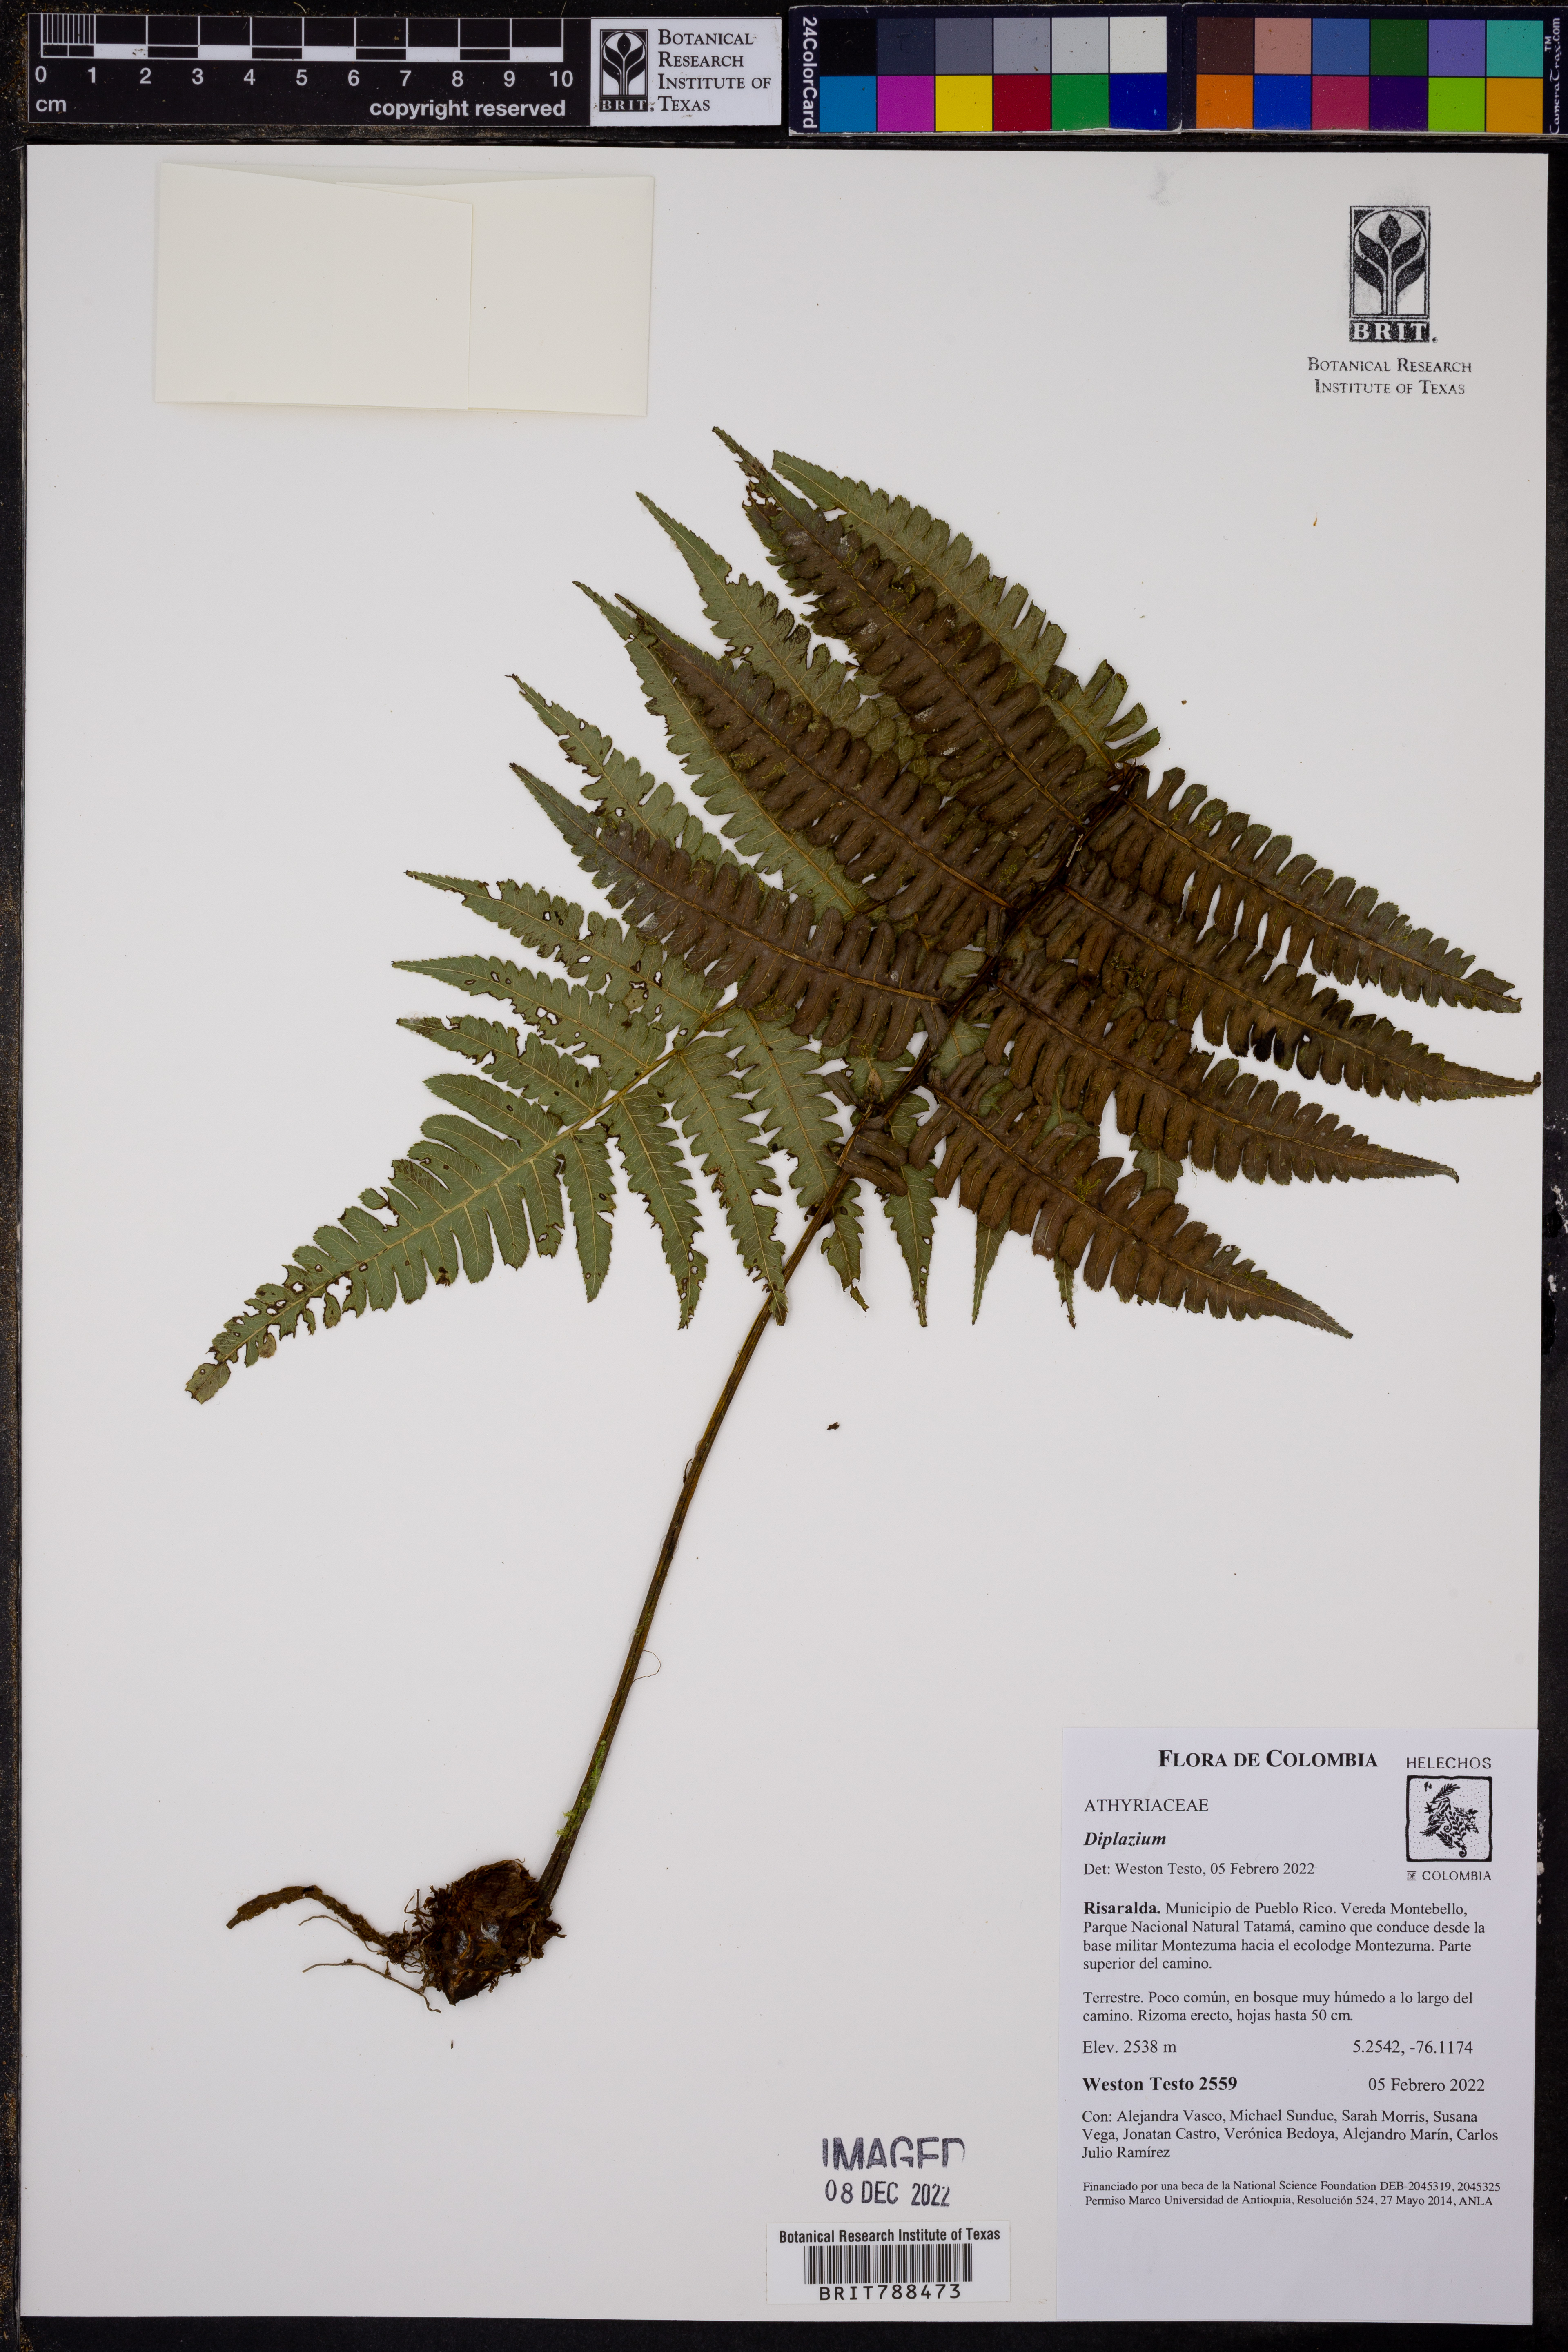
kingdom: Plantae
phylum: Tracheophyta
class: Polypodiopsida
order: Polypodiales
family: Athyriaceae
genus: Diplazium
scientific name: Diplazium
